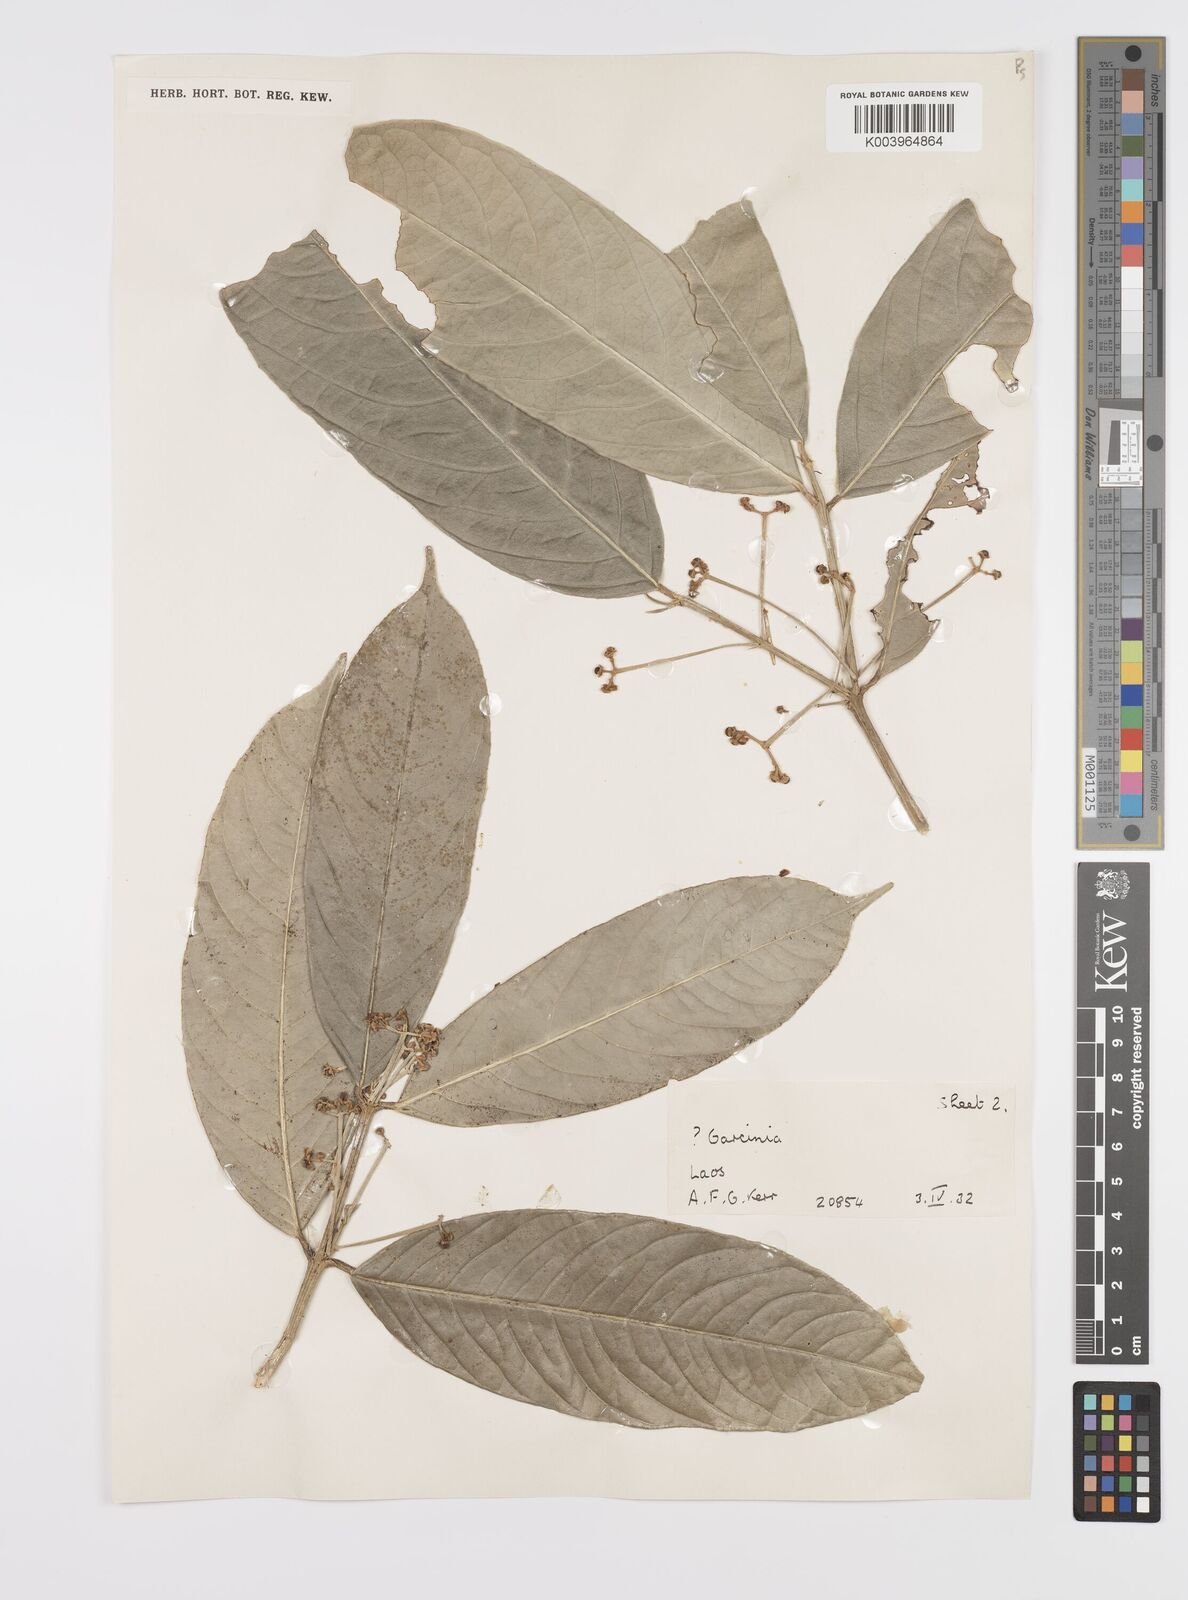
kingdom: Plantae
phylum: Tracheophyta
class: Magnoliopsida
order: Malpighiales
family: Clusiaceae
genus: Garcinia
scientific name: Garcinia
